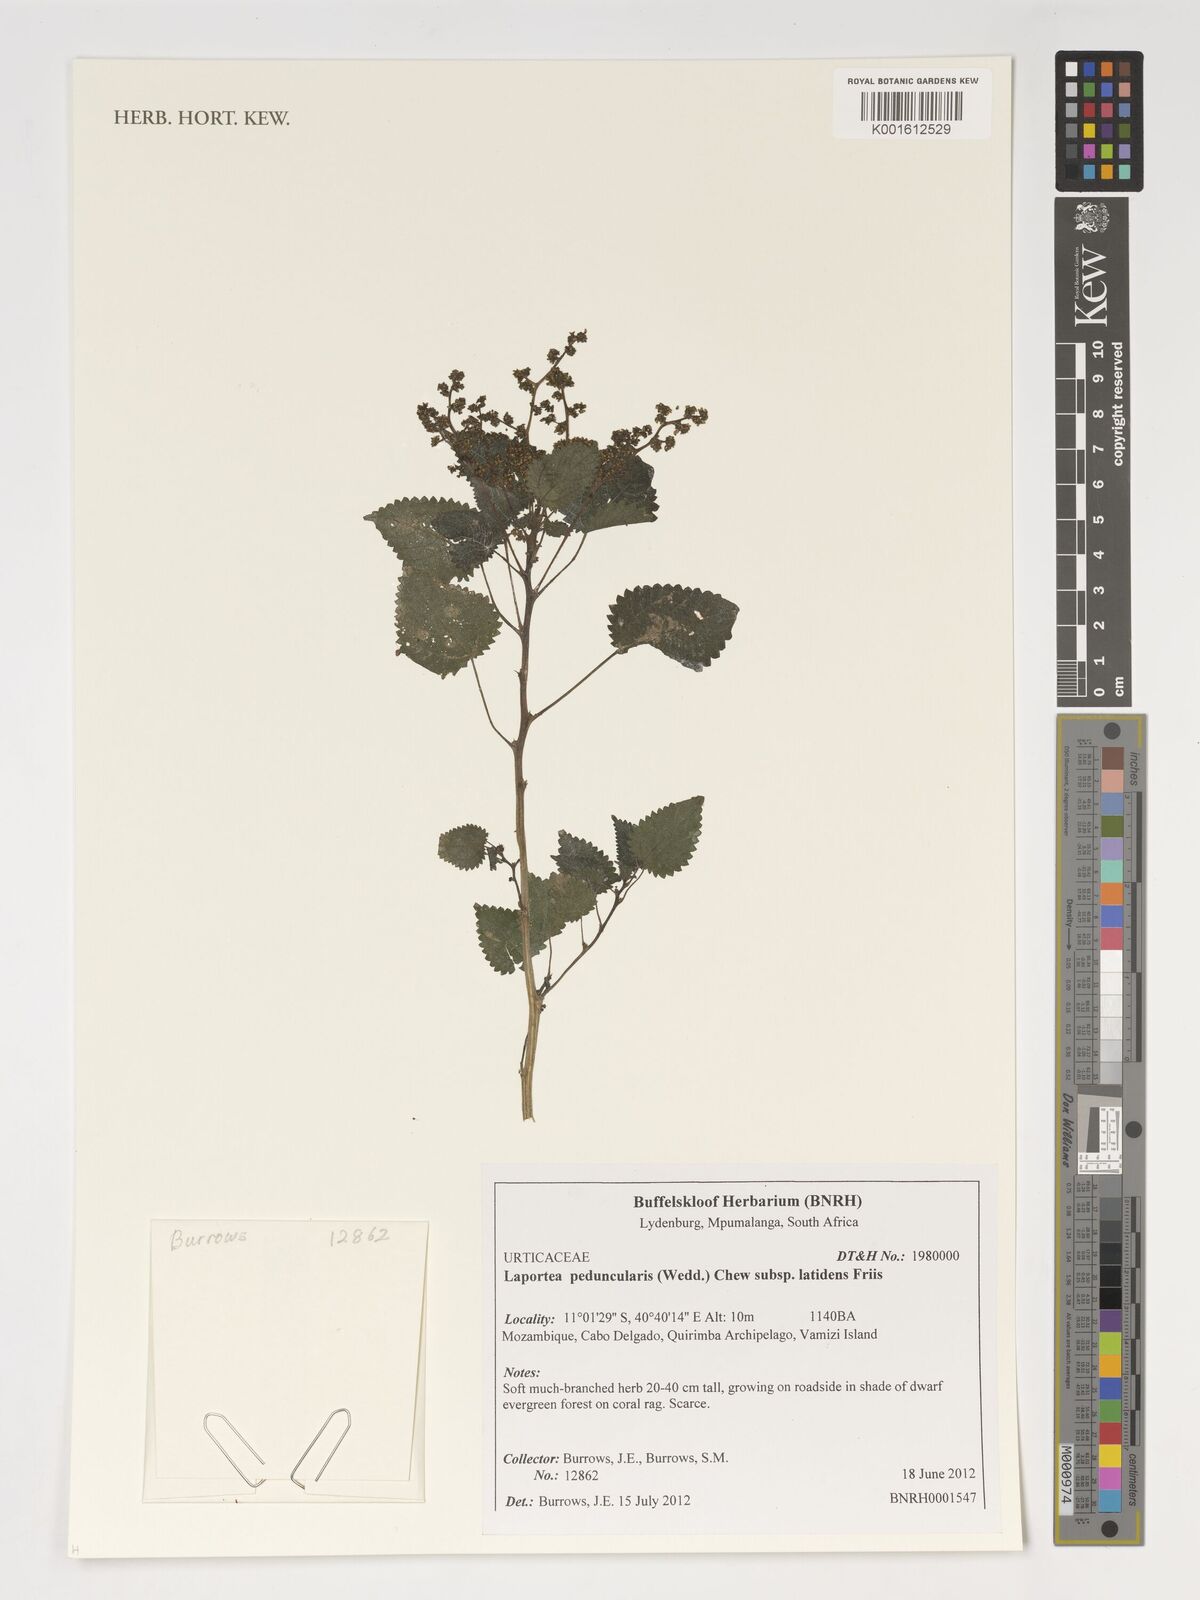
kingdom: Plantae
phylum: Tracheophyta
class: Magnoliopsida
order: Rosales
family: Urticaceae
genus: Laportea
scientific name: Laportea peduncularis
